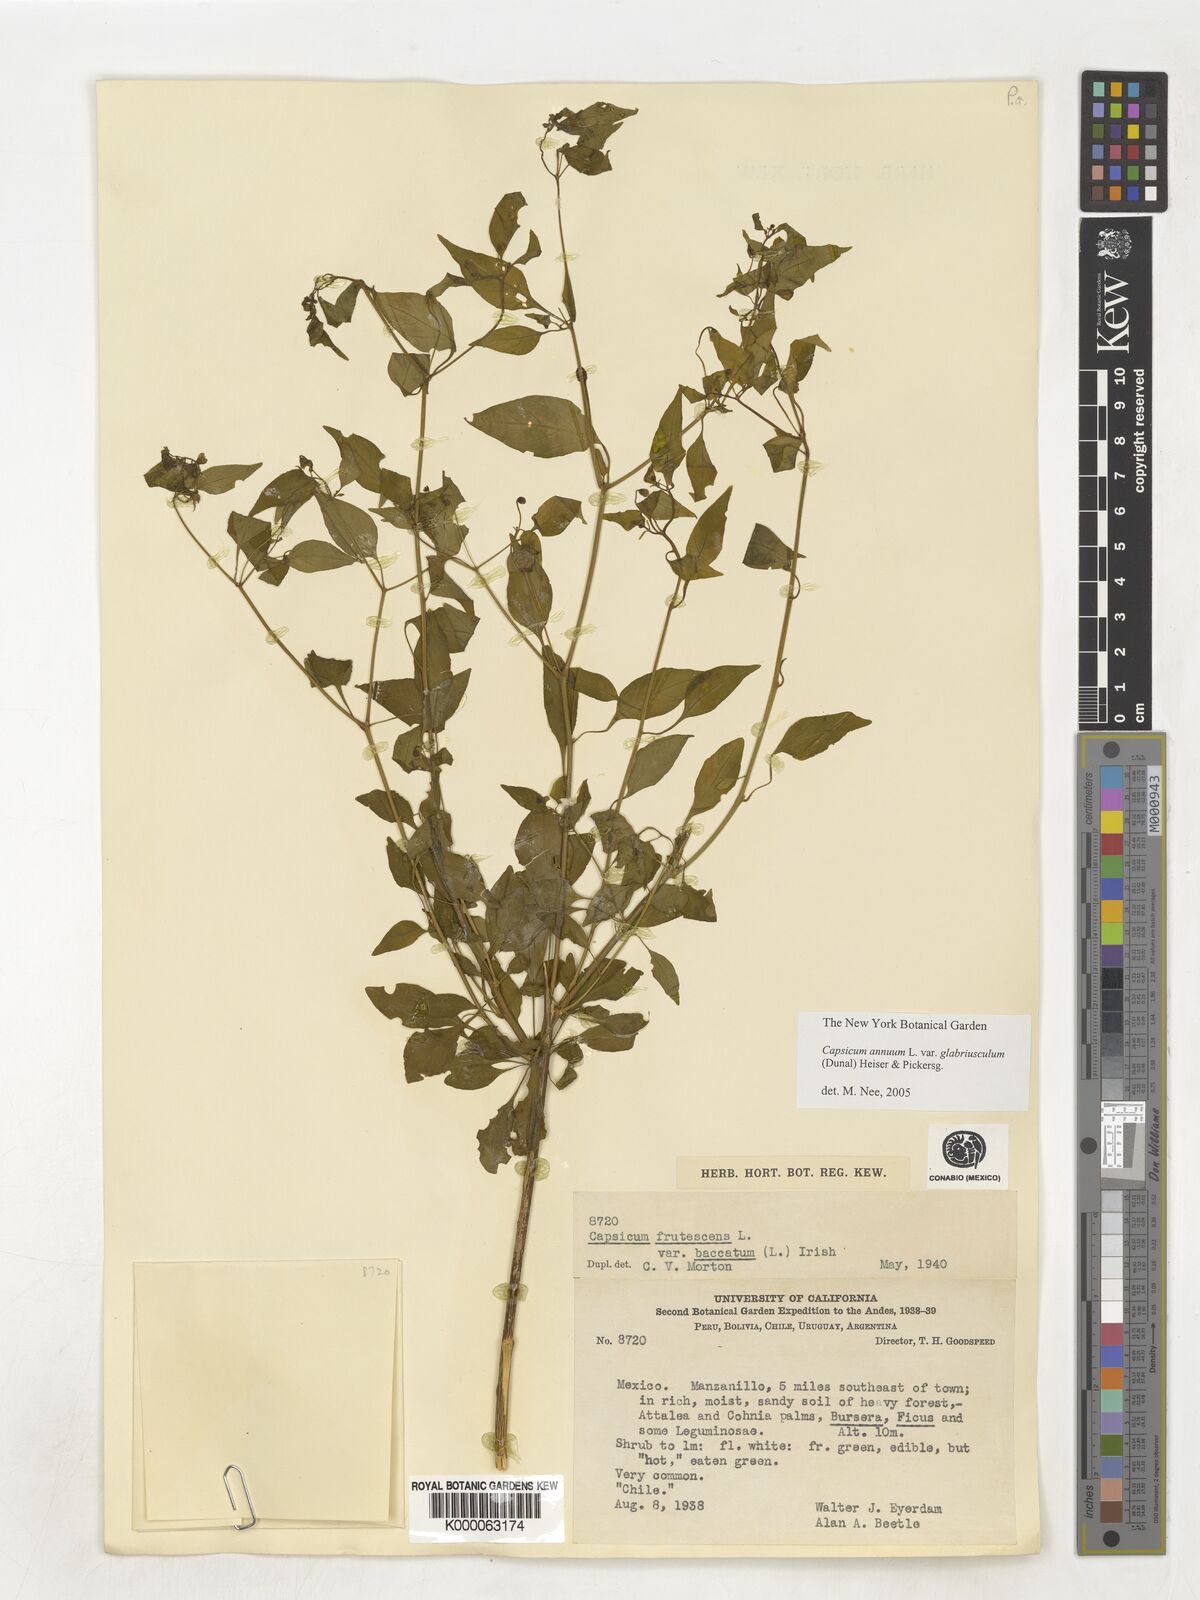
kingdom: Plantae
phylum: Tracheophyta
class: Magnoliopsida
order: Solanales
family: Solanaceae
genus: Capsicum
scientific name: Capsicum baccatum
